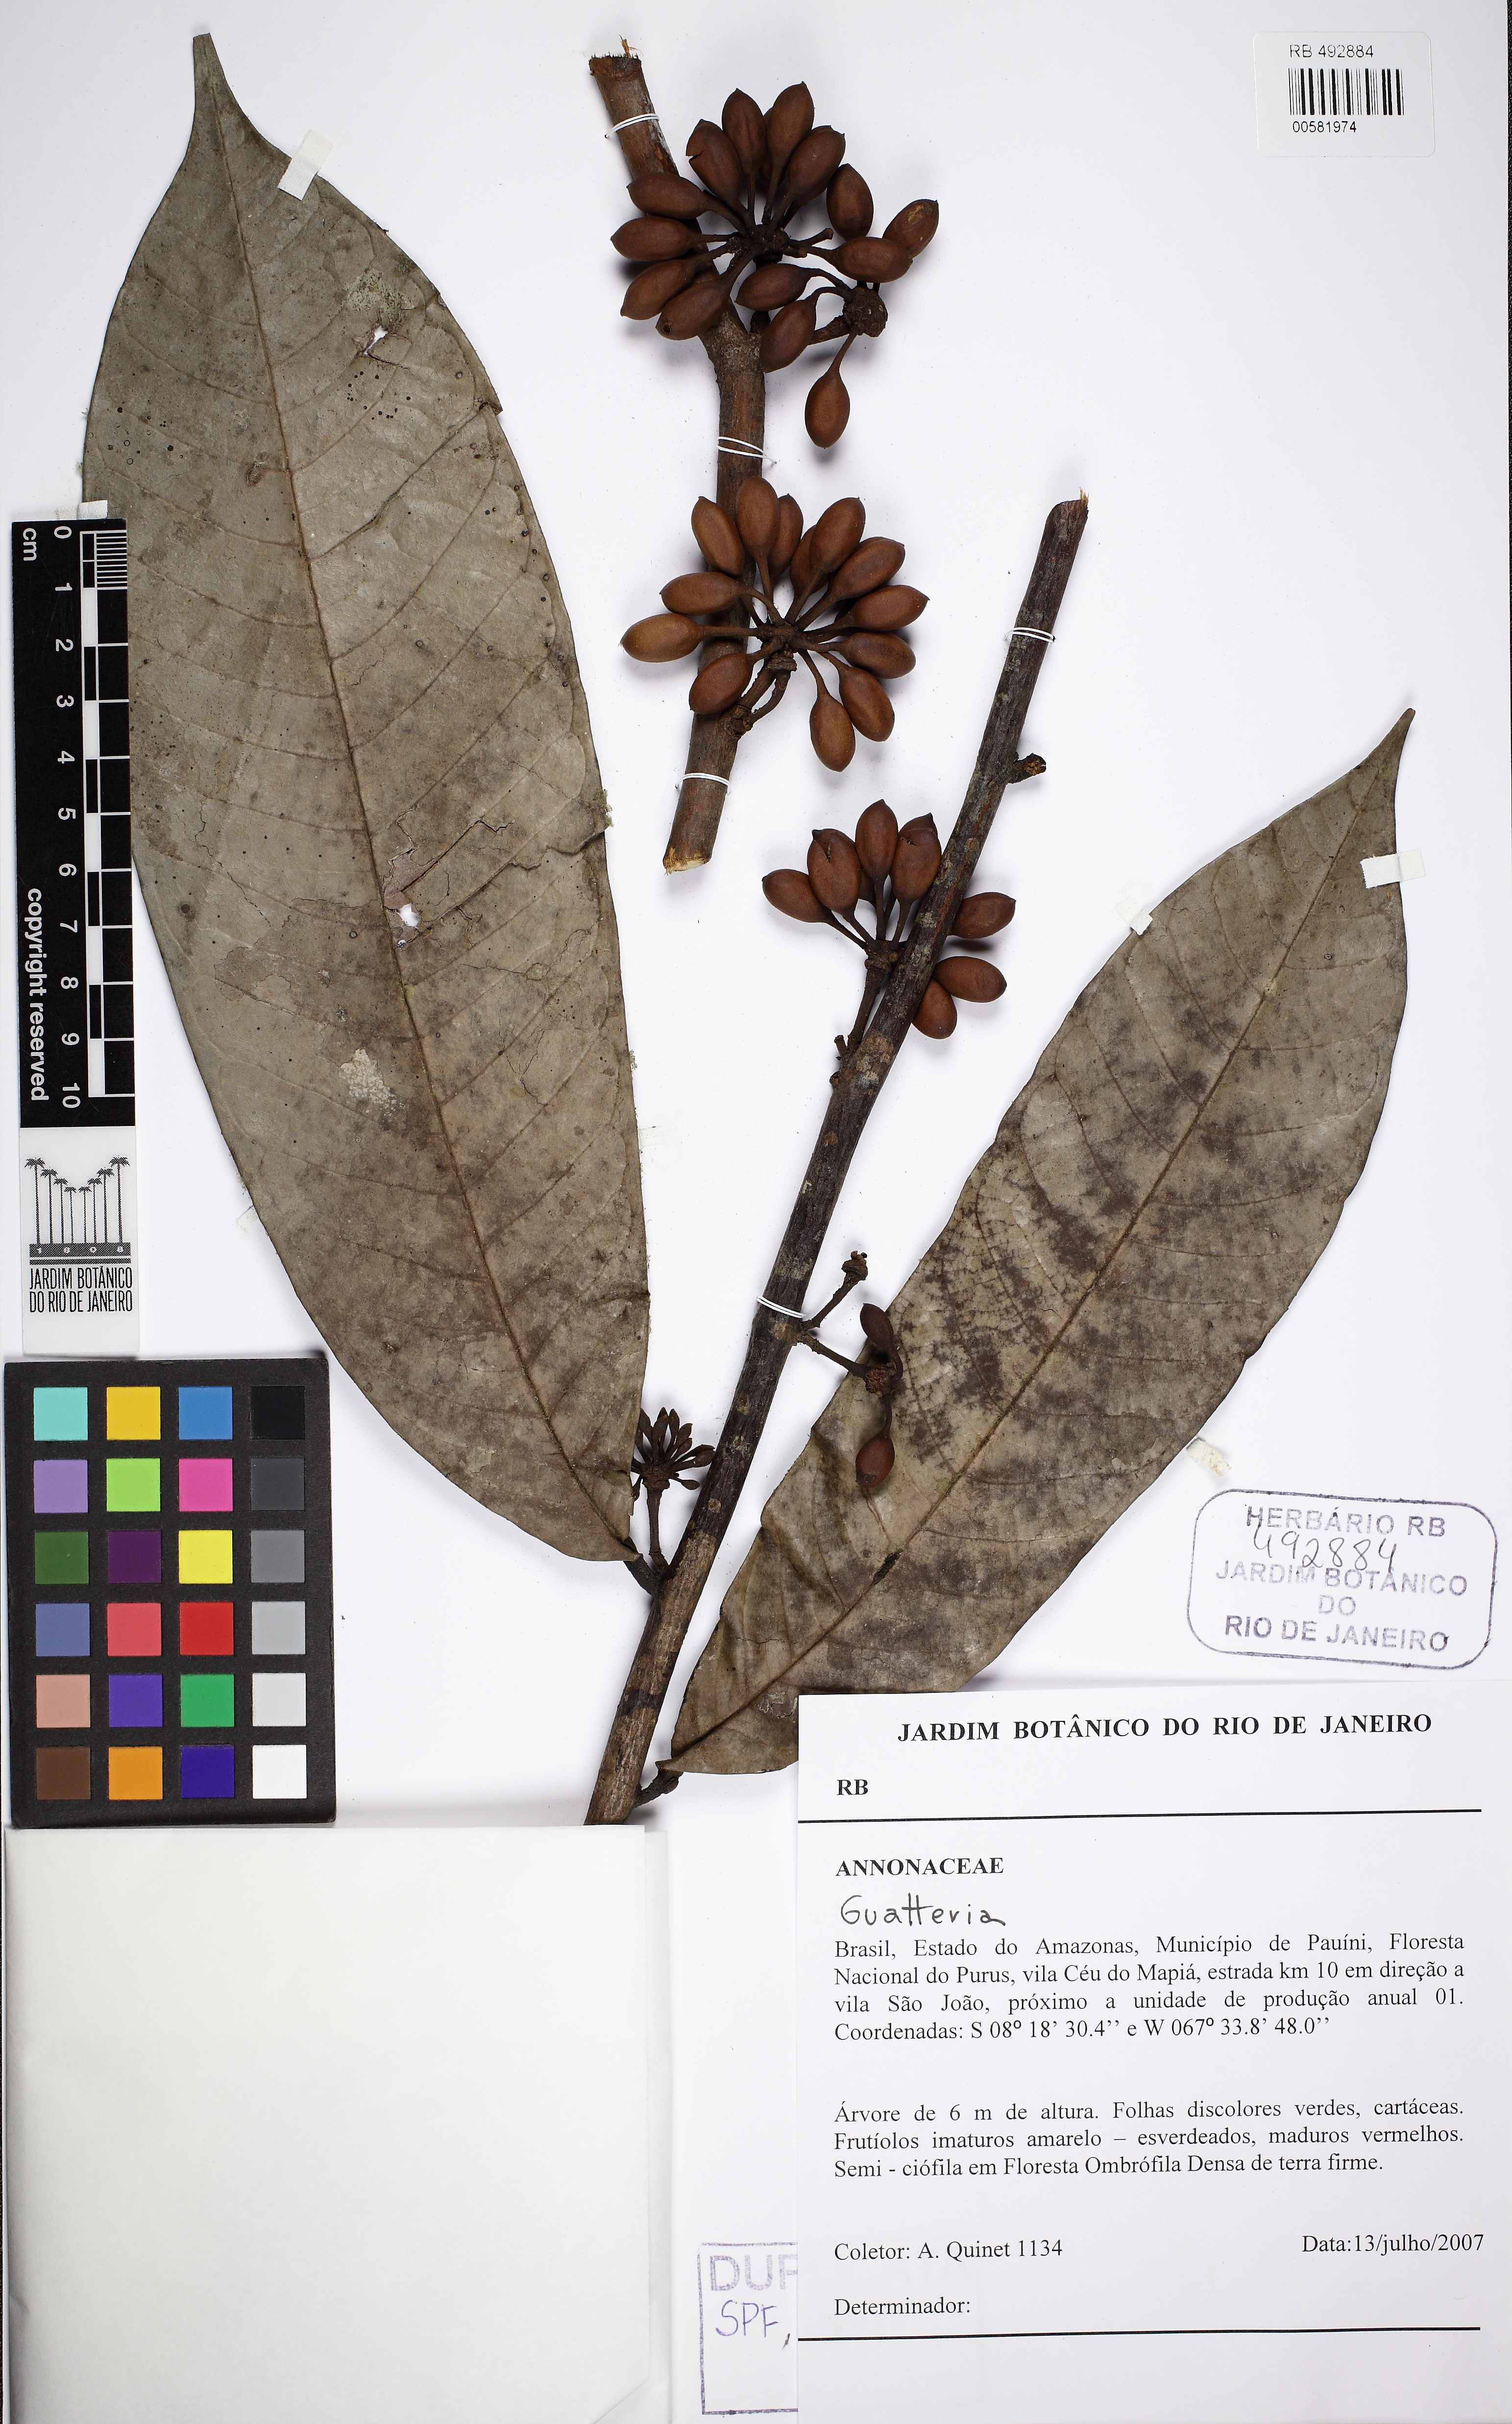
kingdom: Plantae
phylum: Tracheophyta
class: Magnoliopsida
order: Magnoliales
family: Annonaceae
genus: Guatteria
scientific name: Guatteria megalophylla
